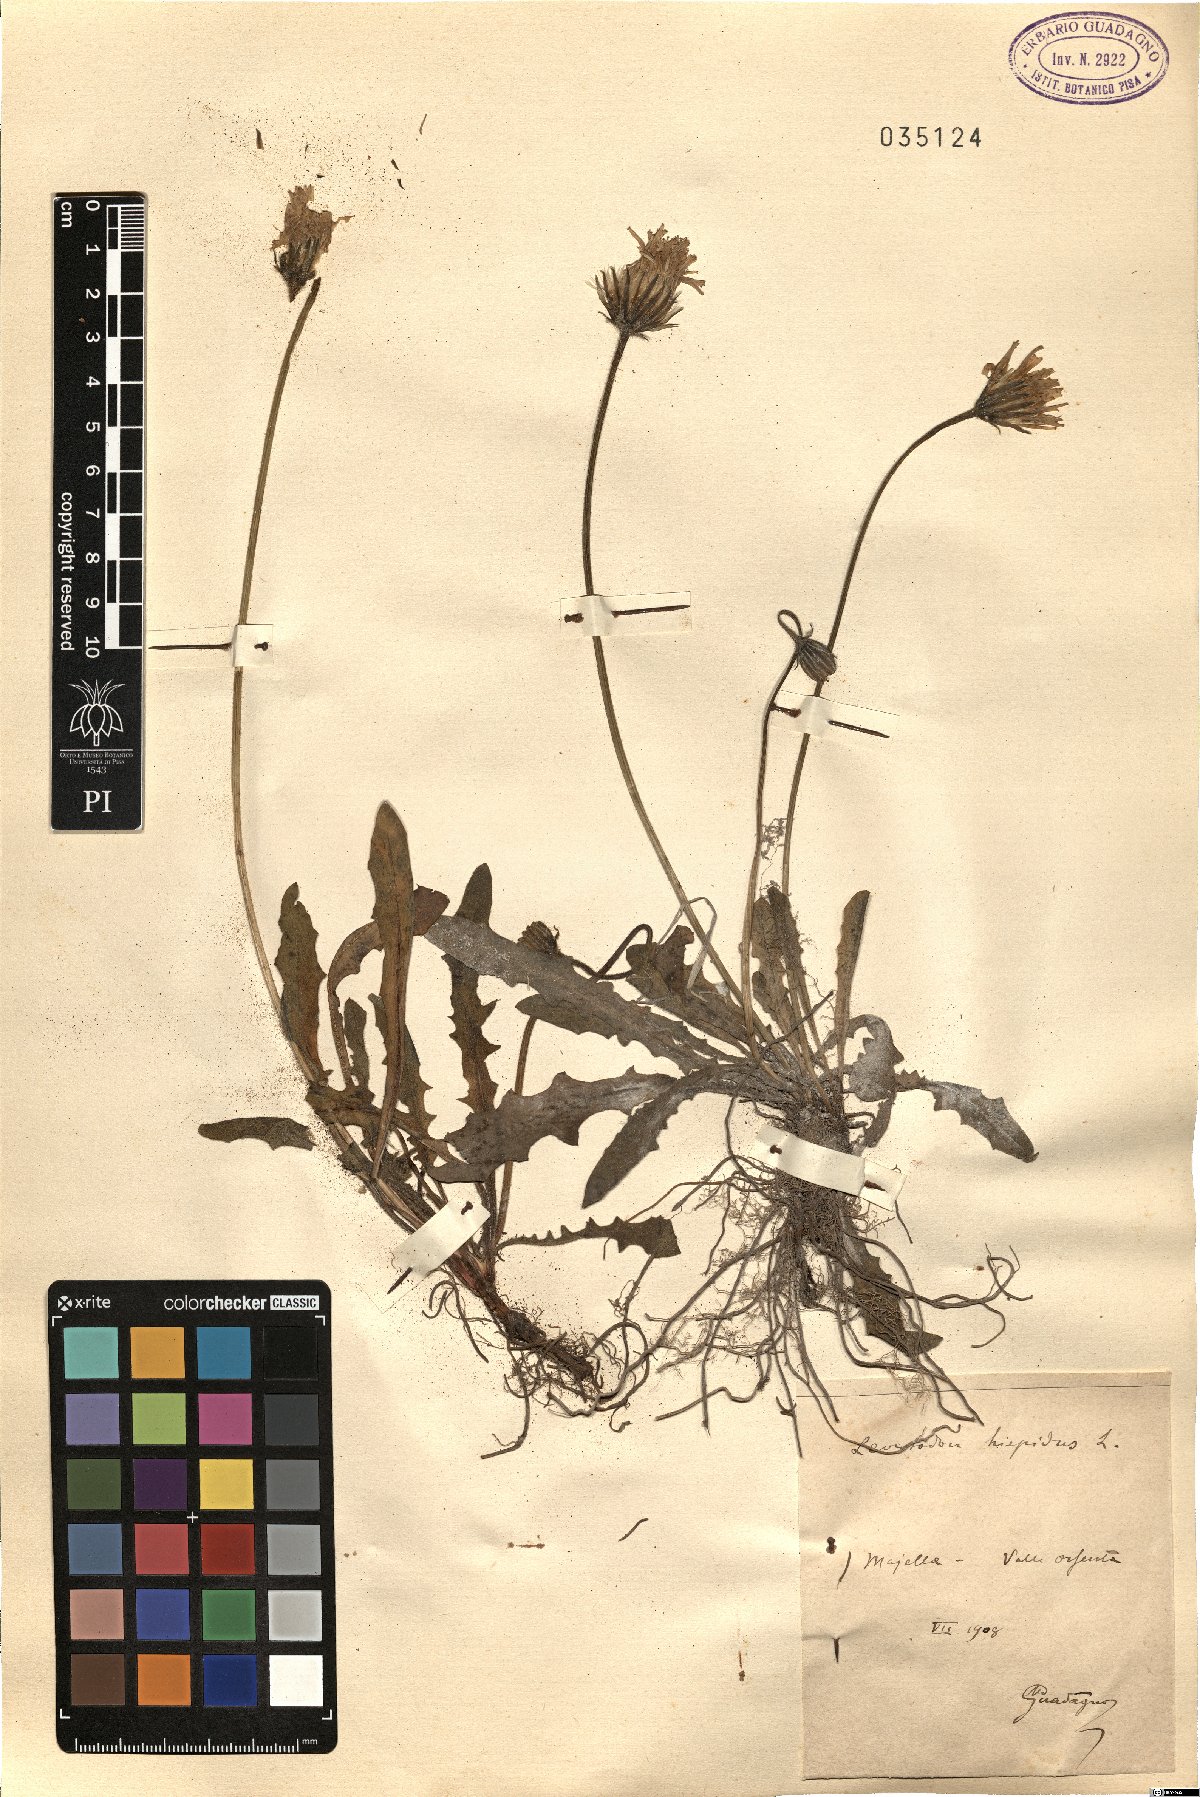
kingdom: Plantae
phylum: Tracheophyta
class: Magnoliopsida
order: Asterales
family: Asteraceae
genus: Leontodon
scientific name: Leontodon hispidus
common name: Rough hawkbit
